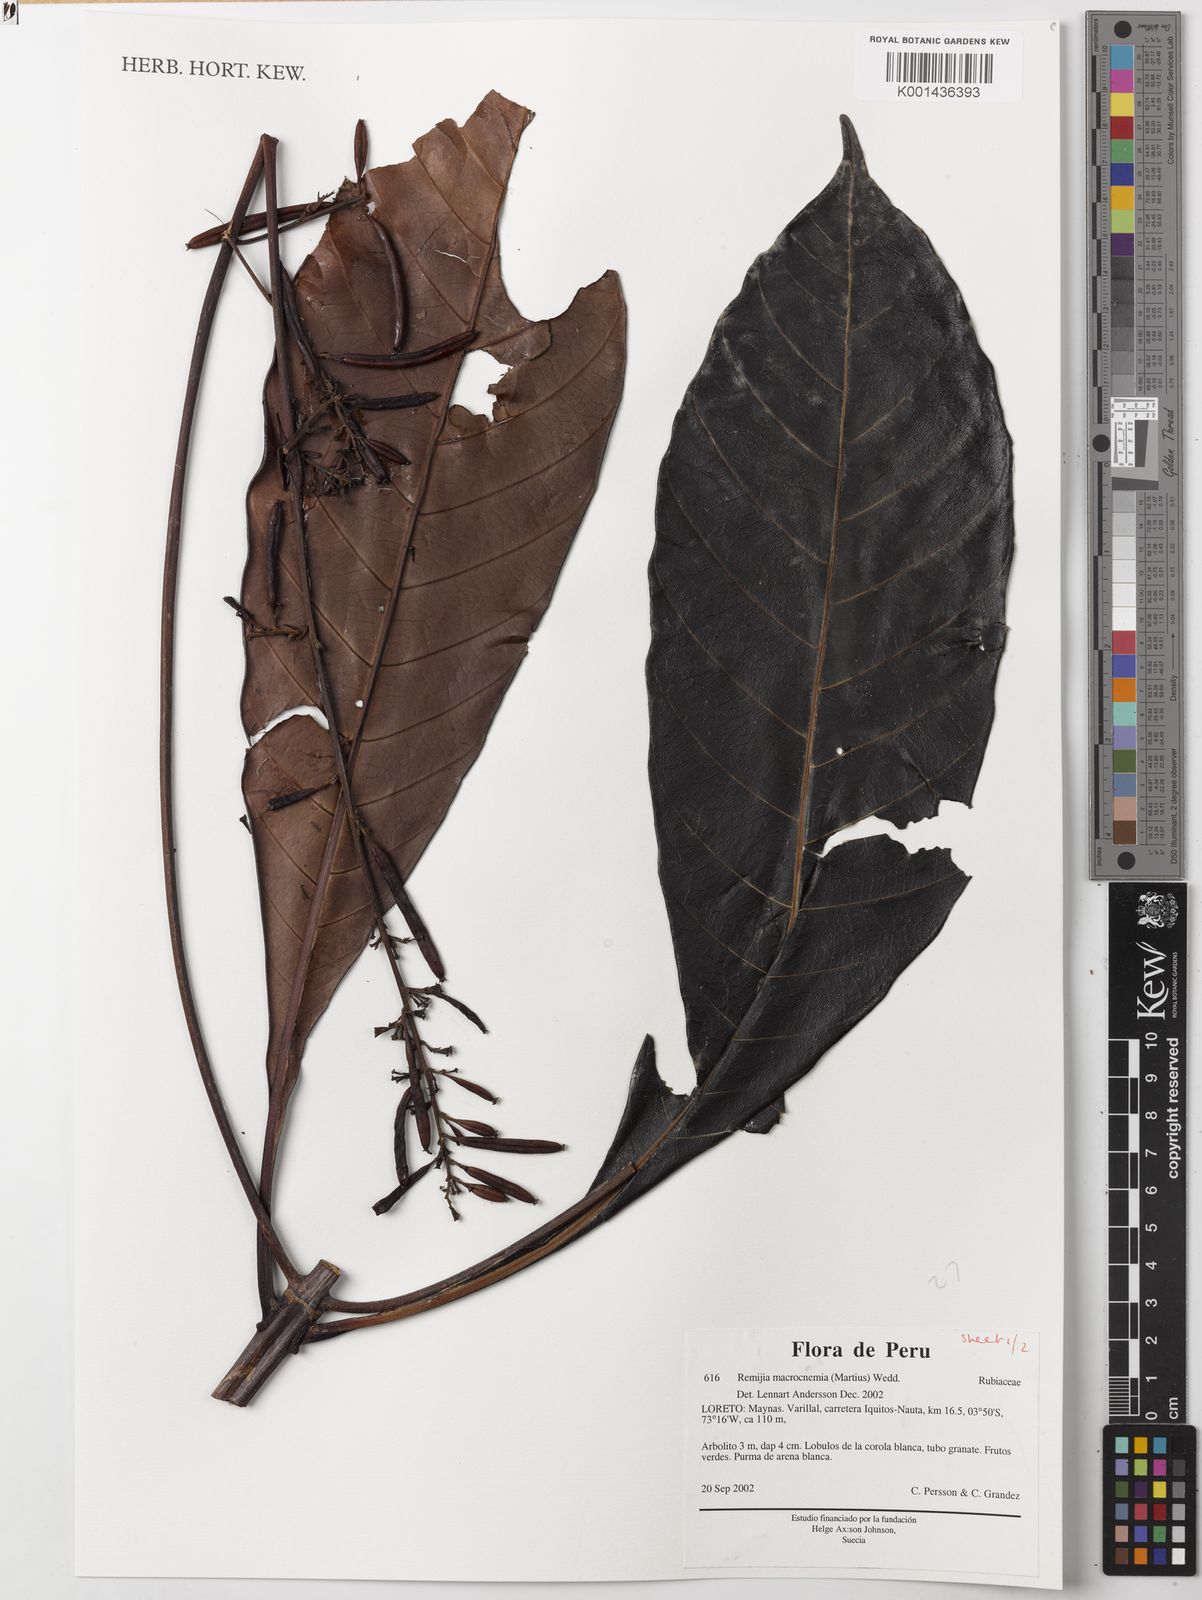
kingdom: Plantae
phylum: Tracheophyta
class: Magnoliopsida
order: Gentianales
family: Rubiaceae
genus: Remijia
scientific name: Remijia macrocnemia
